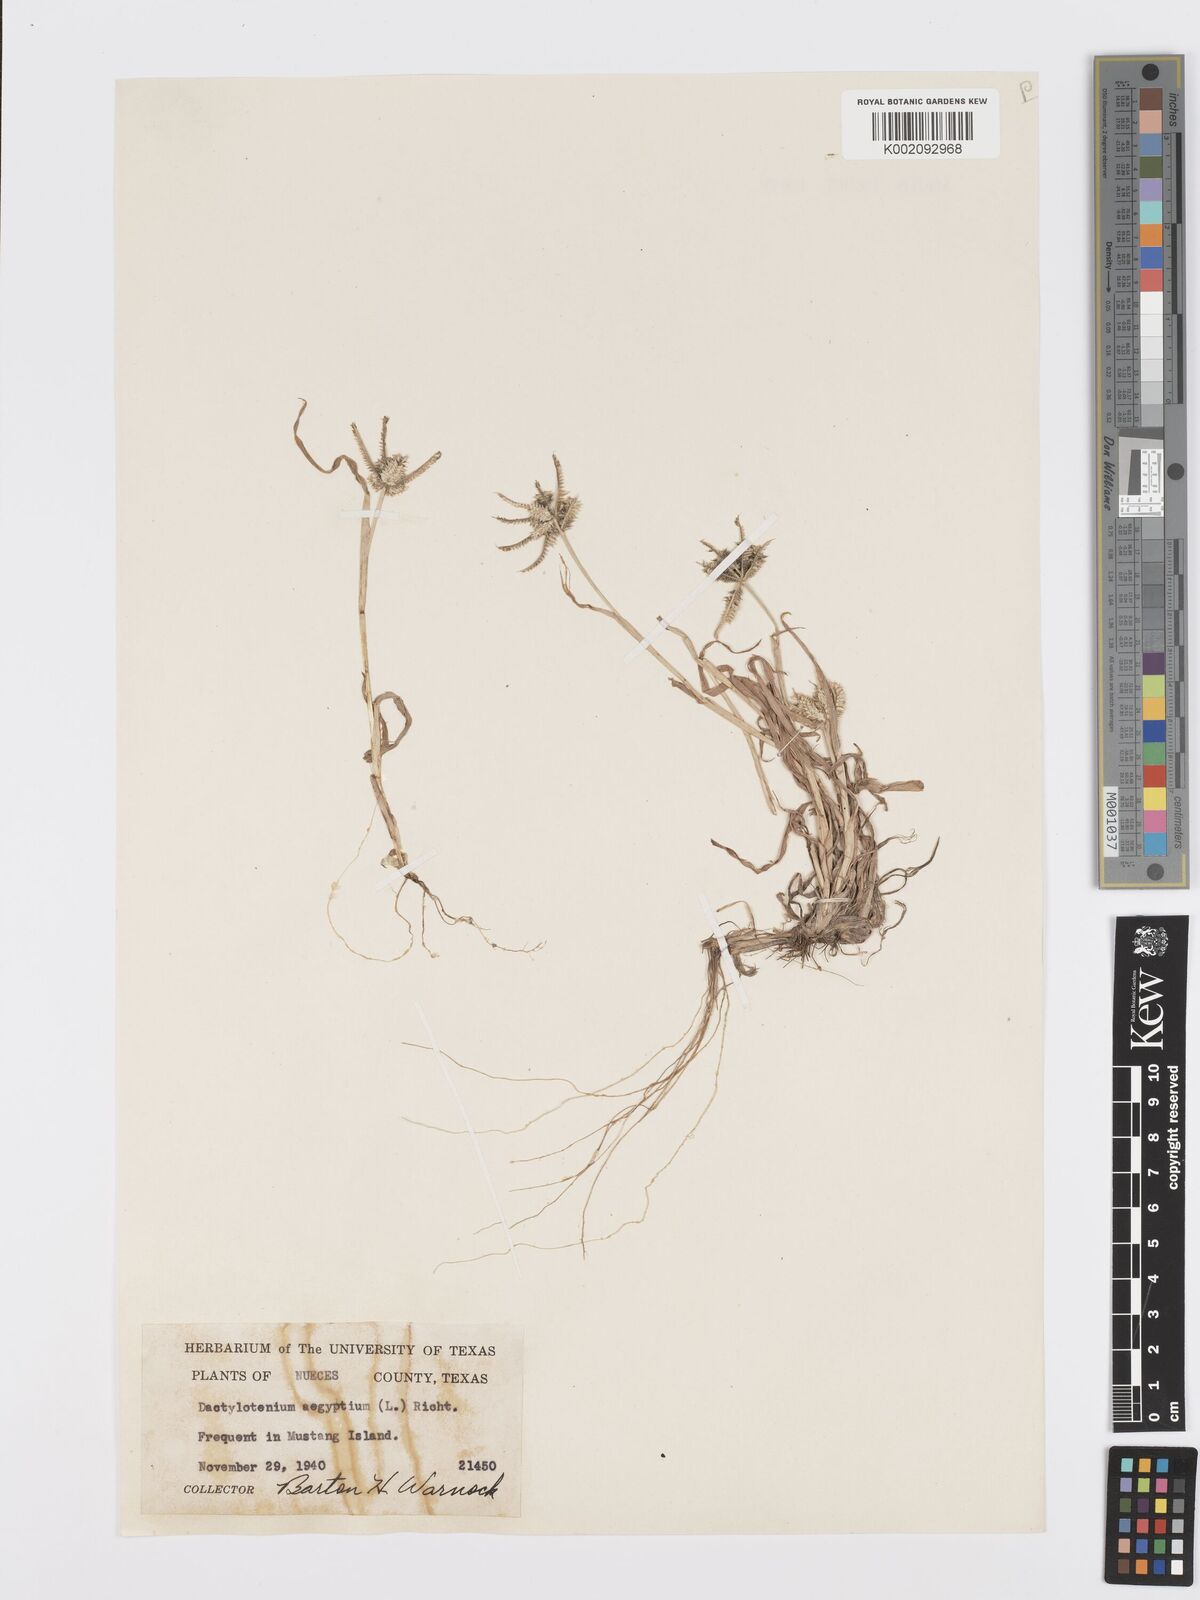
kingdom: Plantae
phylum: Tracheophyta
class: Liliopsida
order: Poales
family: Poaceae
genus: Dactyloctenium
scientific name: Dactyloctenium aegyptium
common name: Egyptian grass
